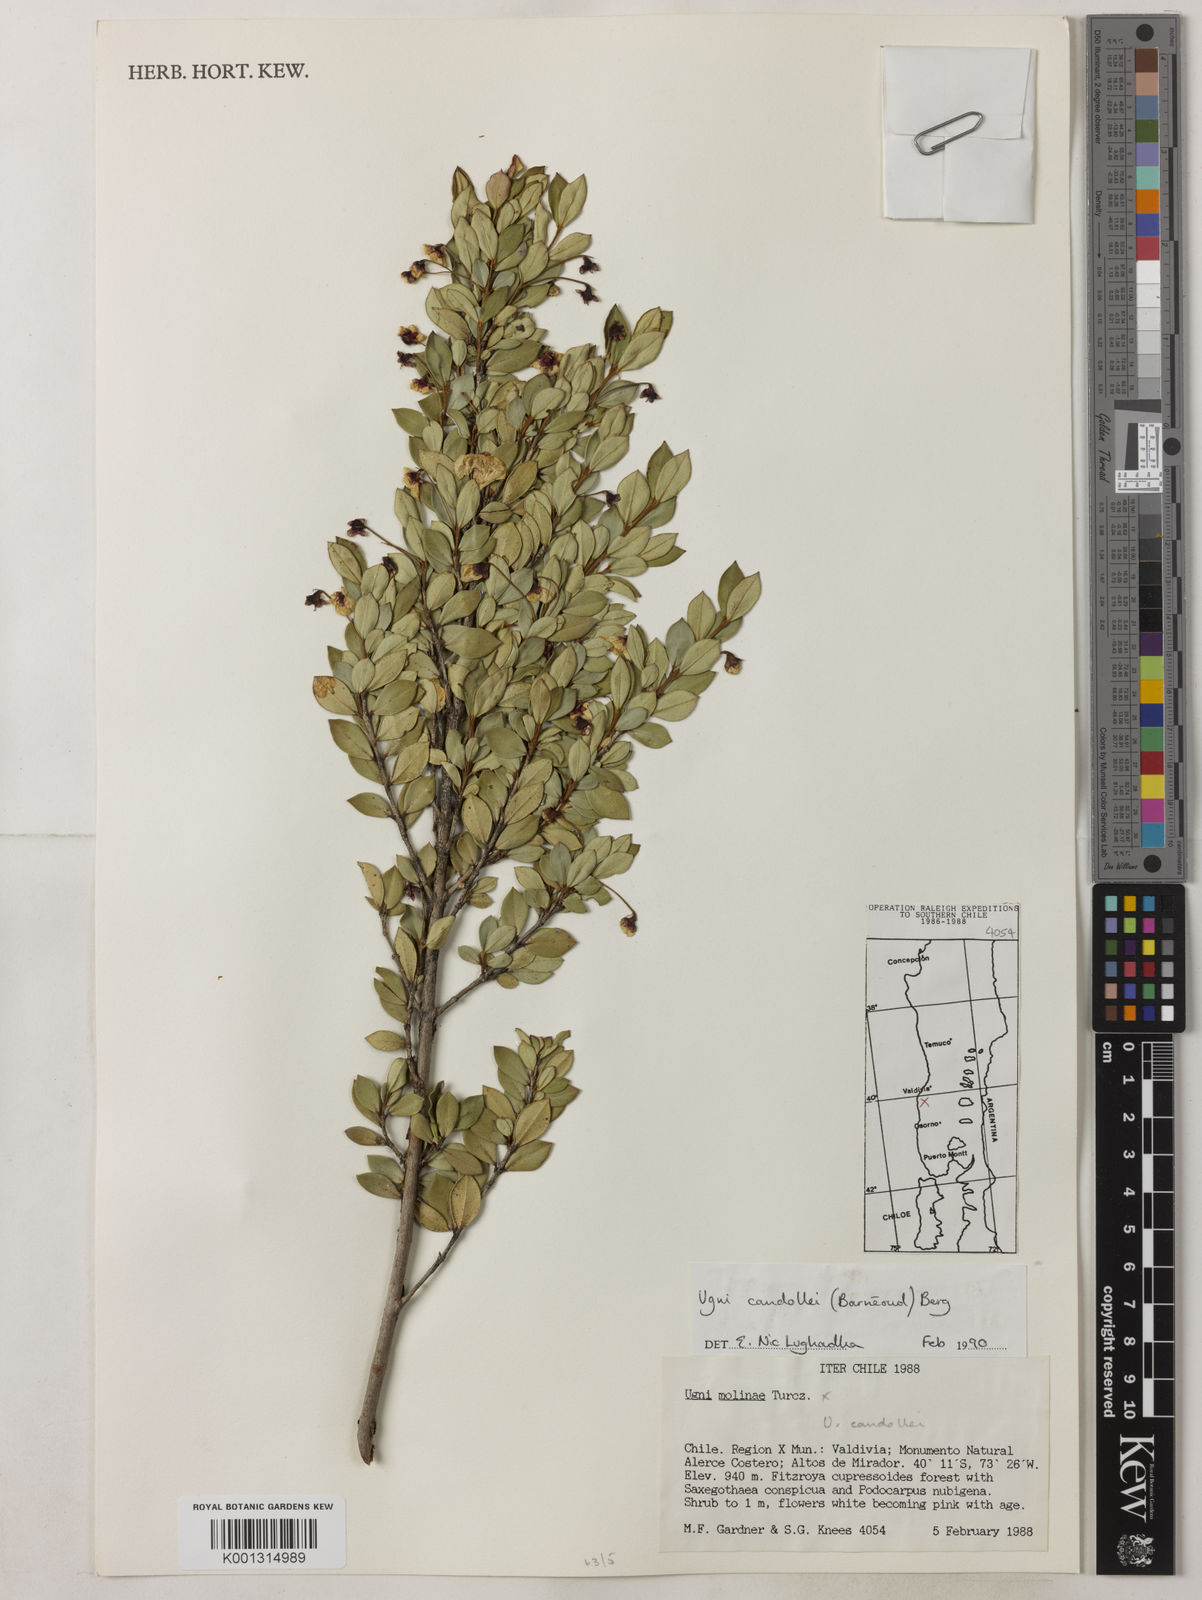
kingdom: Plantae
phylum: Tracheophyta
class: Magnoliopsida
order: Myrtales
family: Myrtaceae
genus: Ugni
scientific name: Ugni candollei
